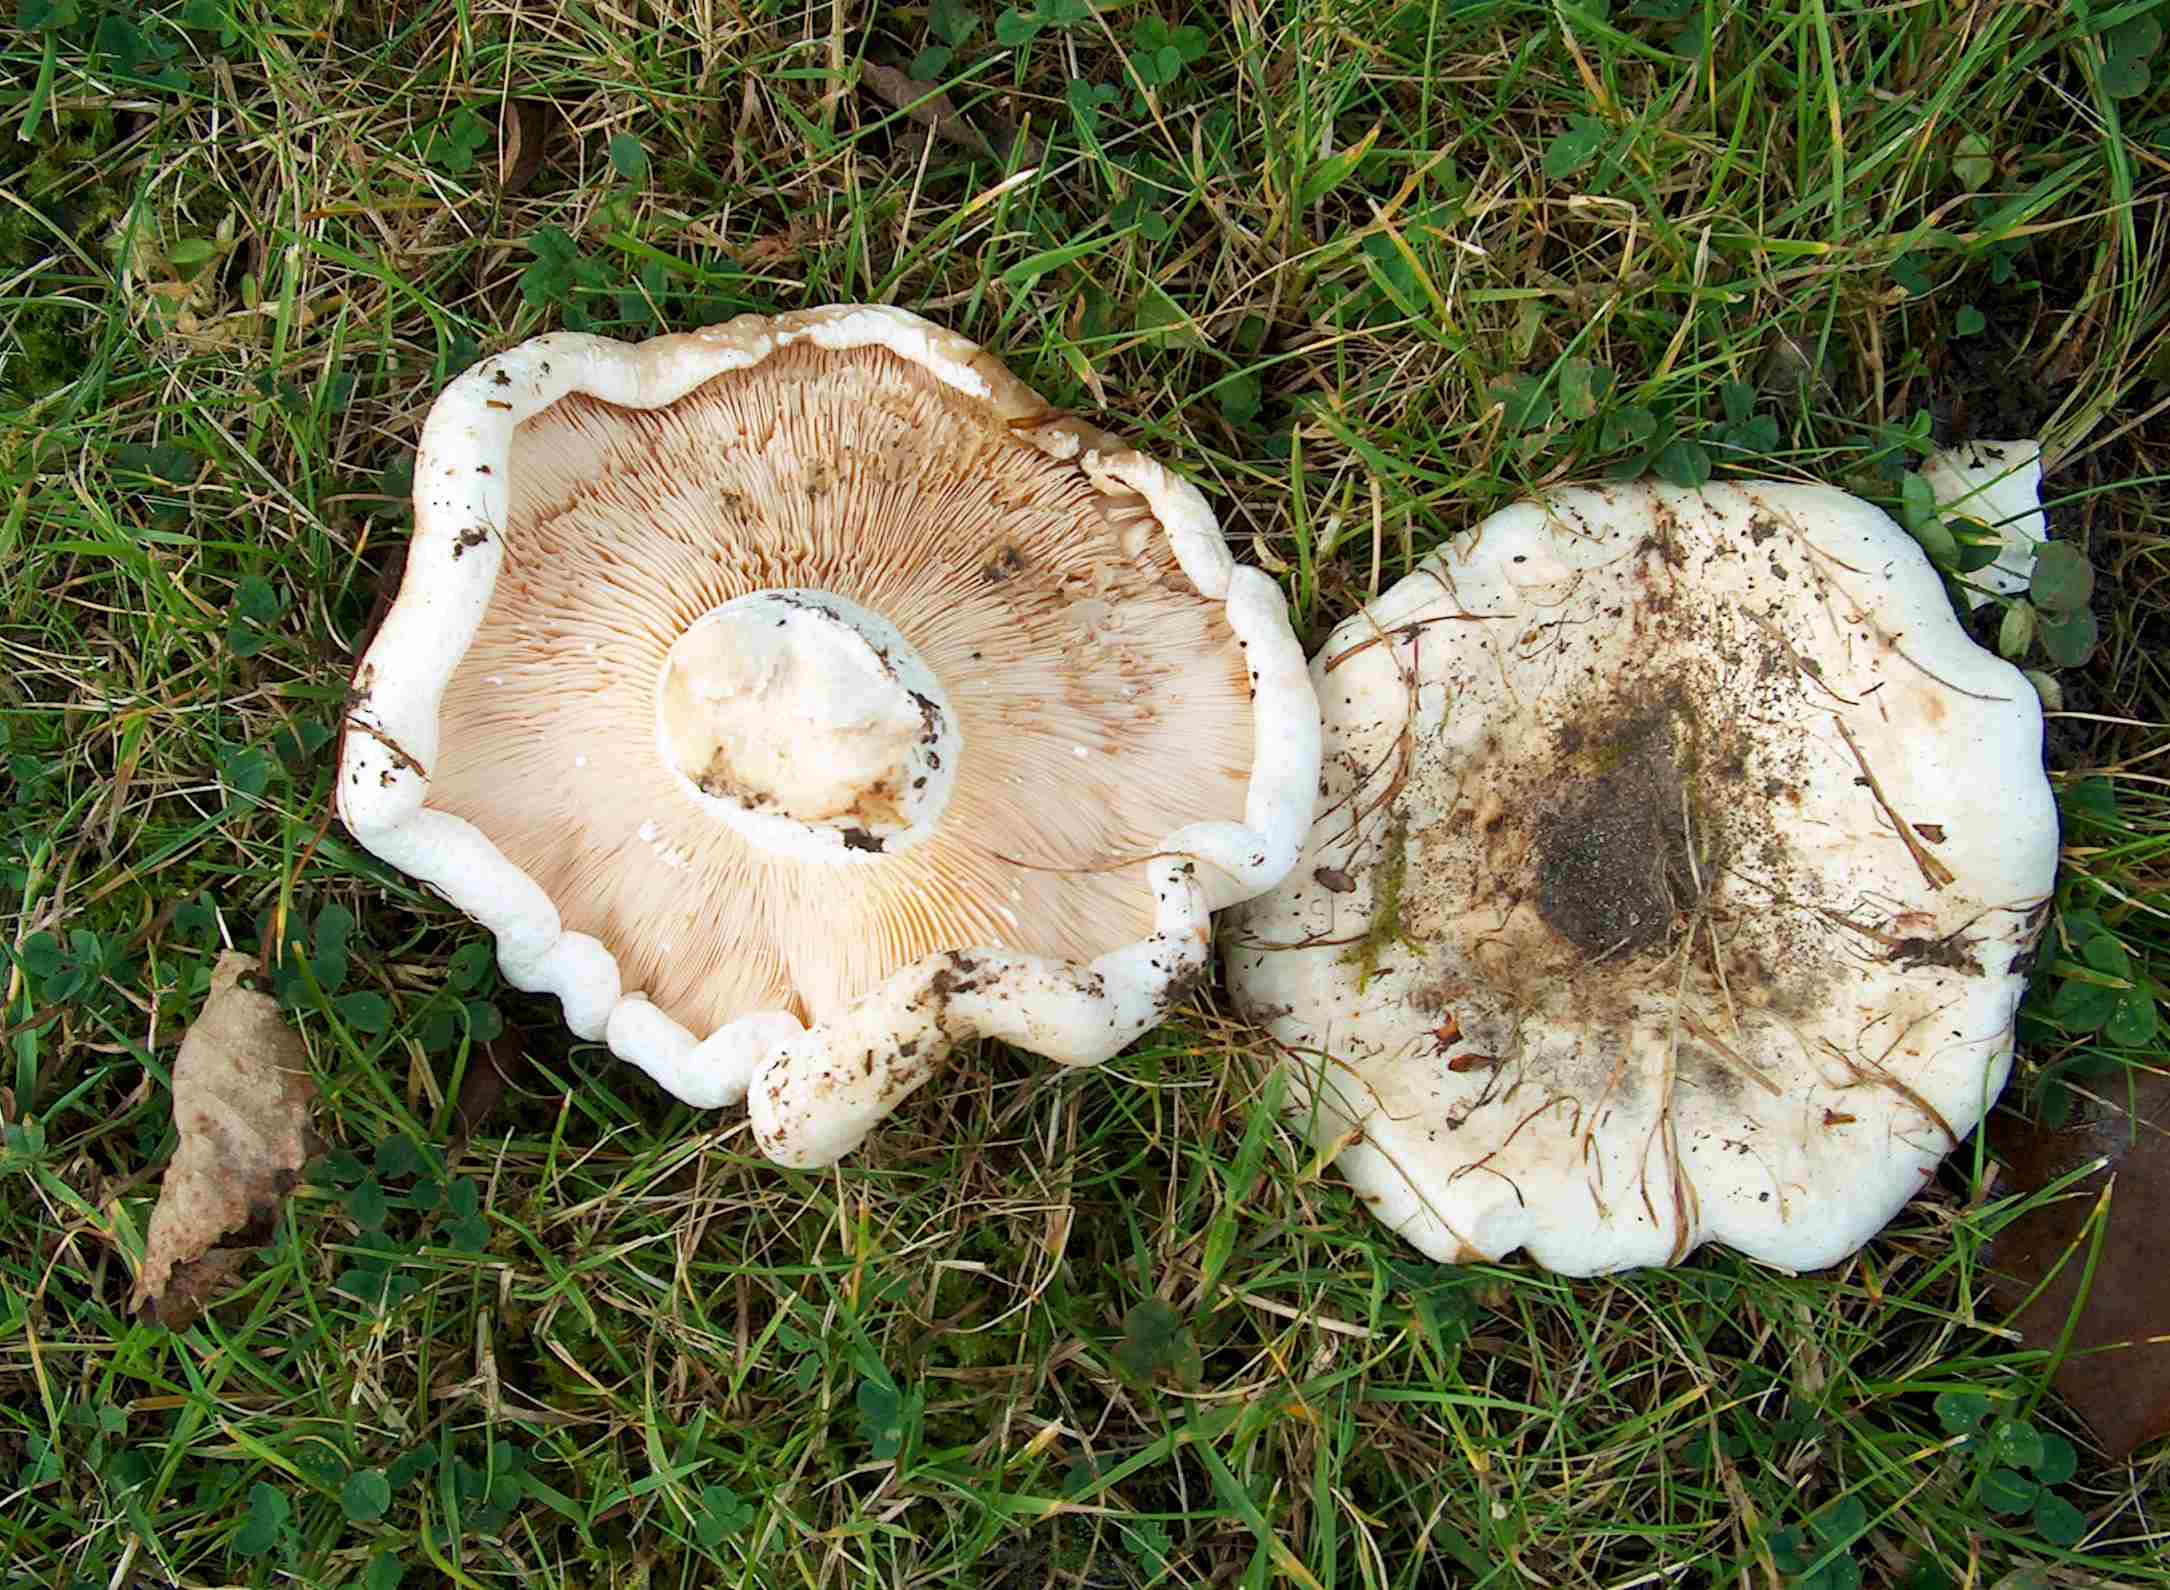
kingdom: Fungi
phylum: Basidiomycota
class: Agaricomycetes
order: Russulales
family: Russulaceae
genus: Lactarius
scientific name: Lactarius controversus
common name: rosabladet mælkehat
